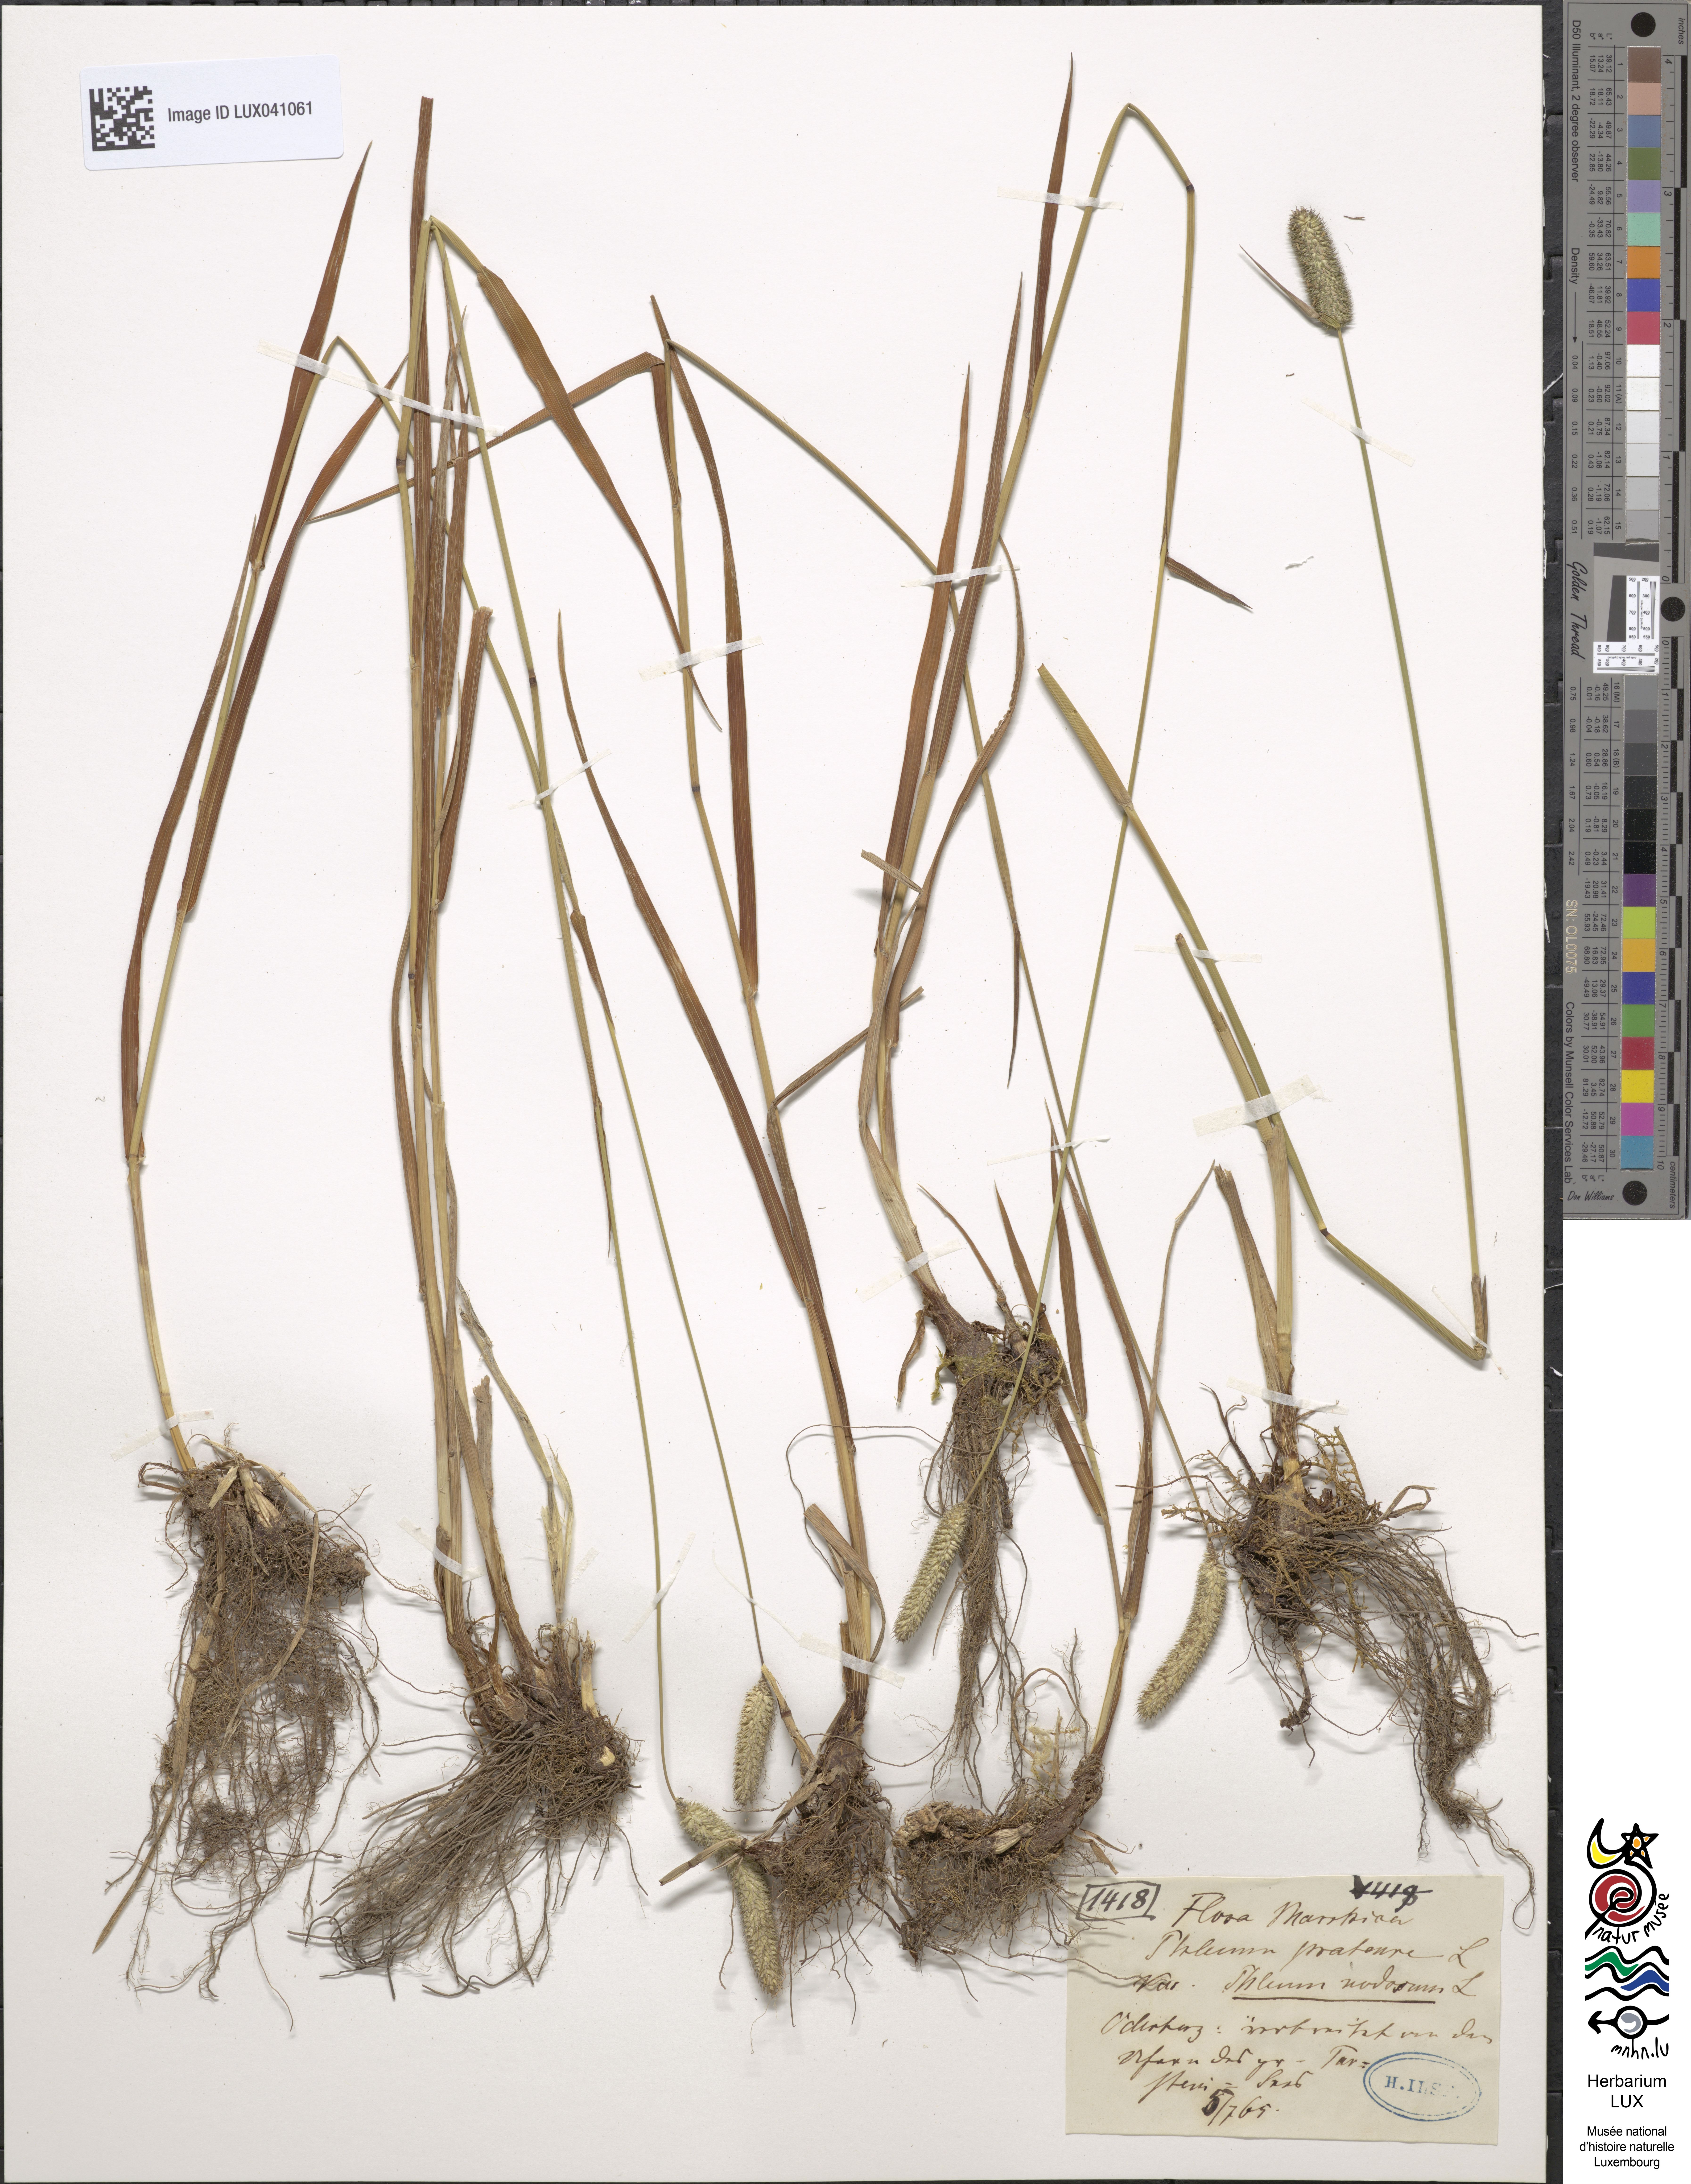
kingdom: Plantae
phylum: Tracheophyta
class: Liliopsida
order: Poales
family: Poaceae
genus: Phleum
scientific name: Phleum pratense
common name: Timothy grass
